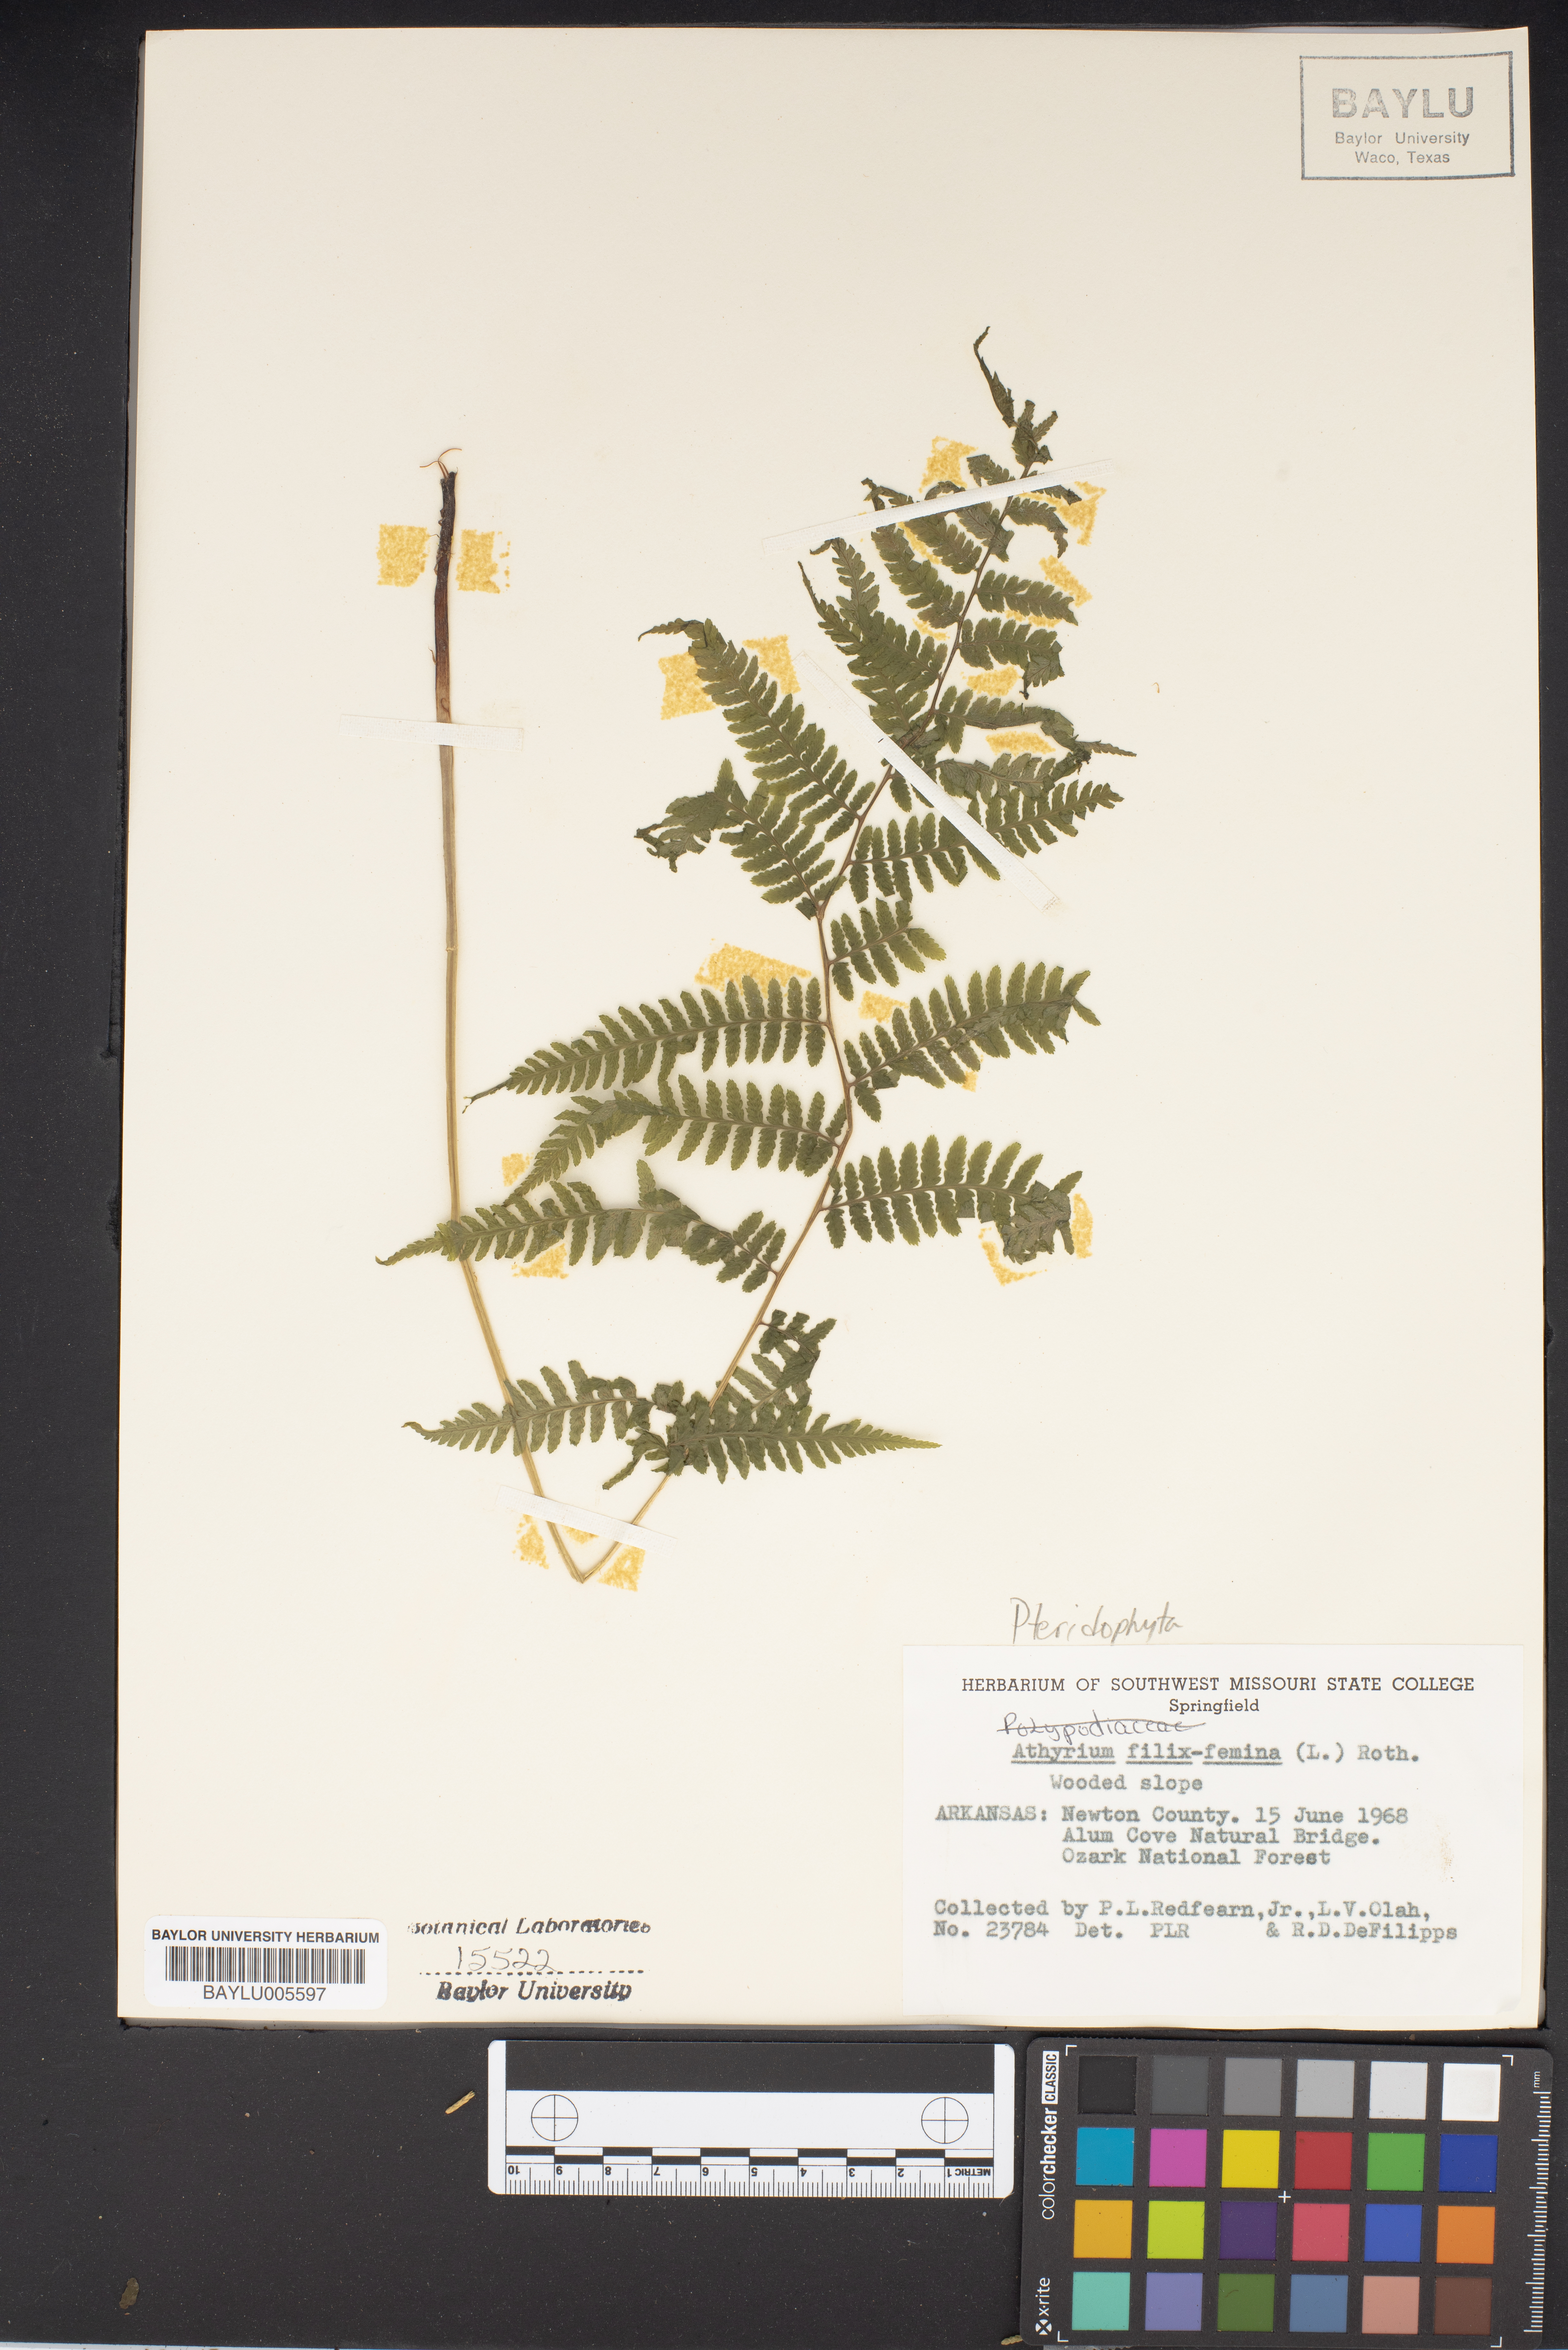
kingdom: Plantae
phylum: Tracheophyta
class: Polypodiopsida
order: Polypodiales
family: Athyriaceae
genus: Athyrium
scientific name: Athyrium filix-femina
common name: Lady fern
